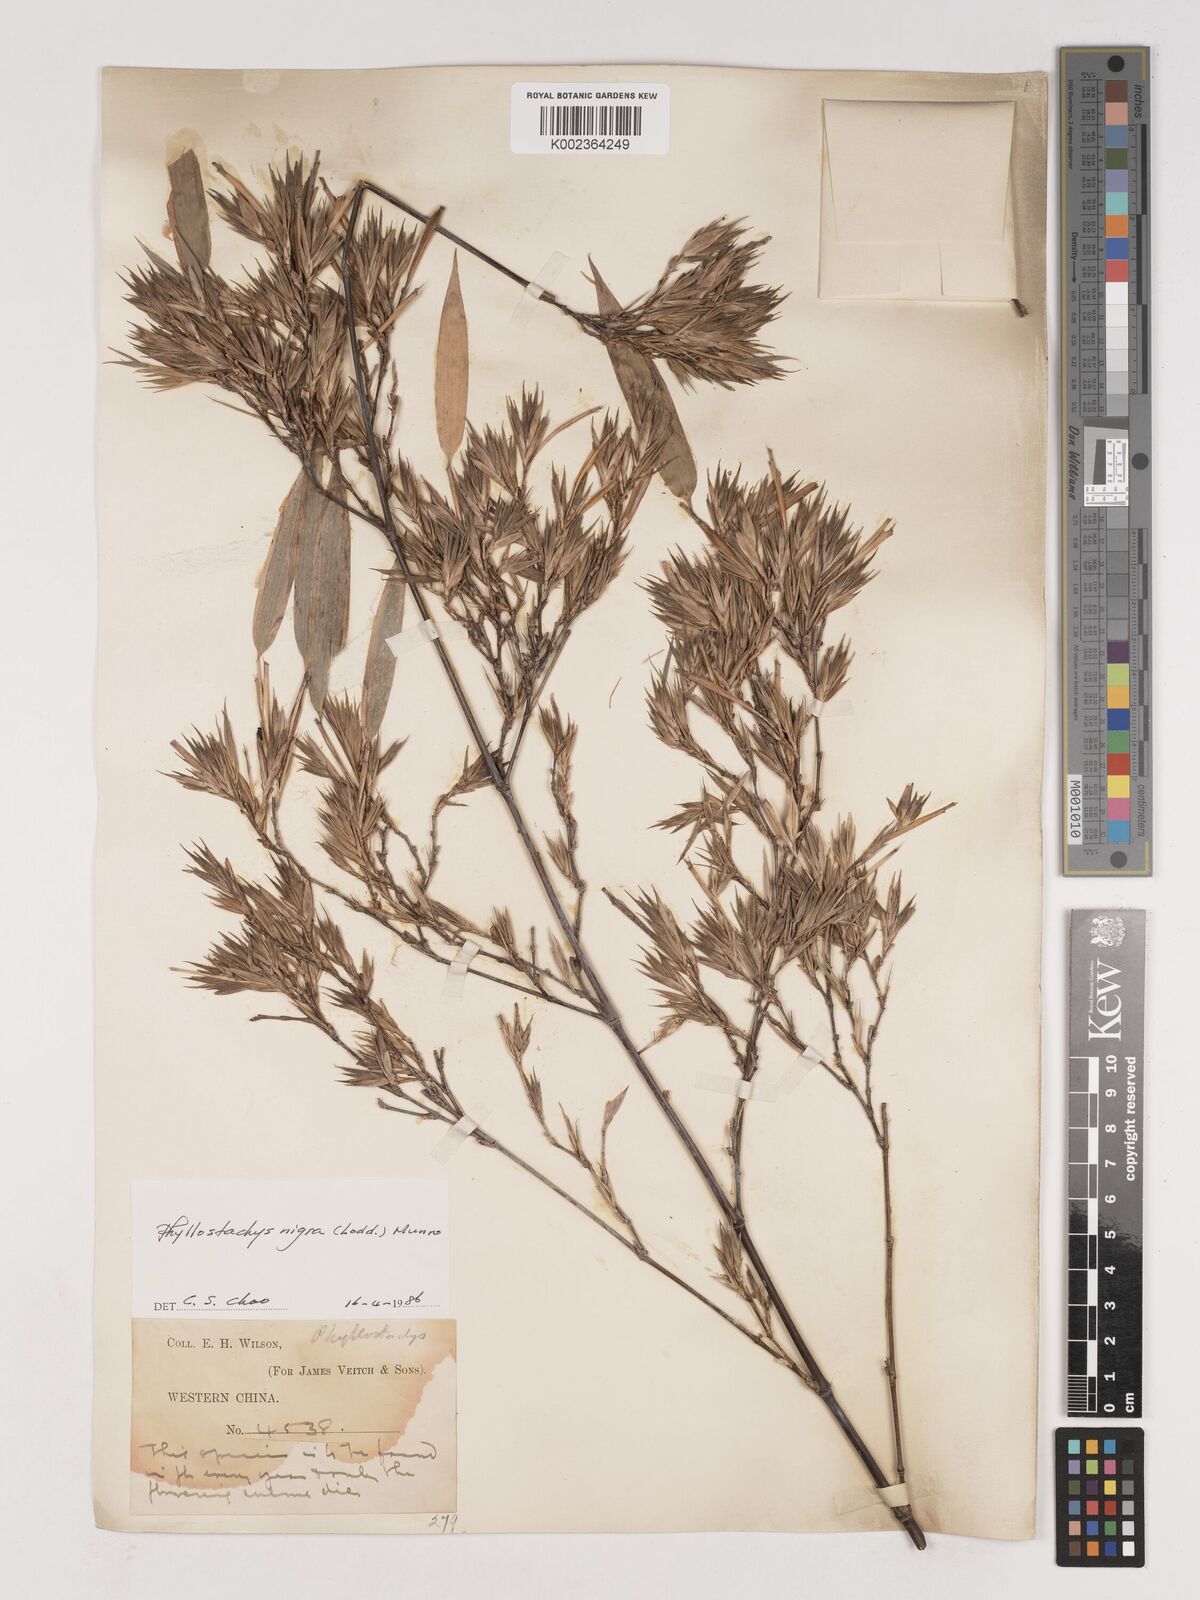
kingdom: Plantae
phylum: Tracheophyta
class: Liliopsida
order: Poales
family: Poaceae
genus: Phyllostachys
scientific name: Phyllostachys nigra
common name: Black bamboo
